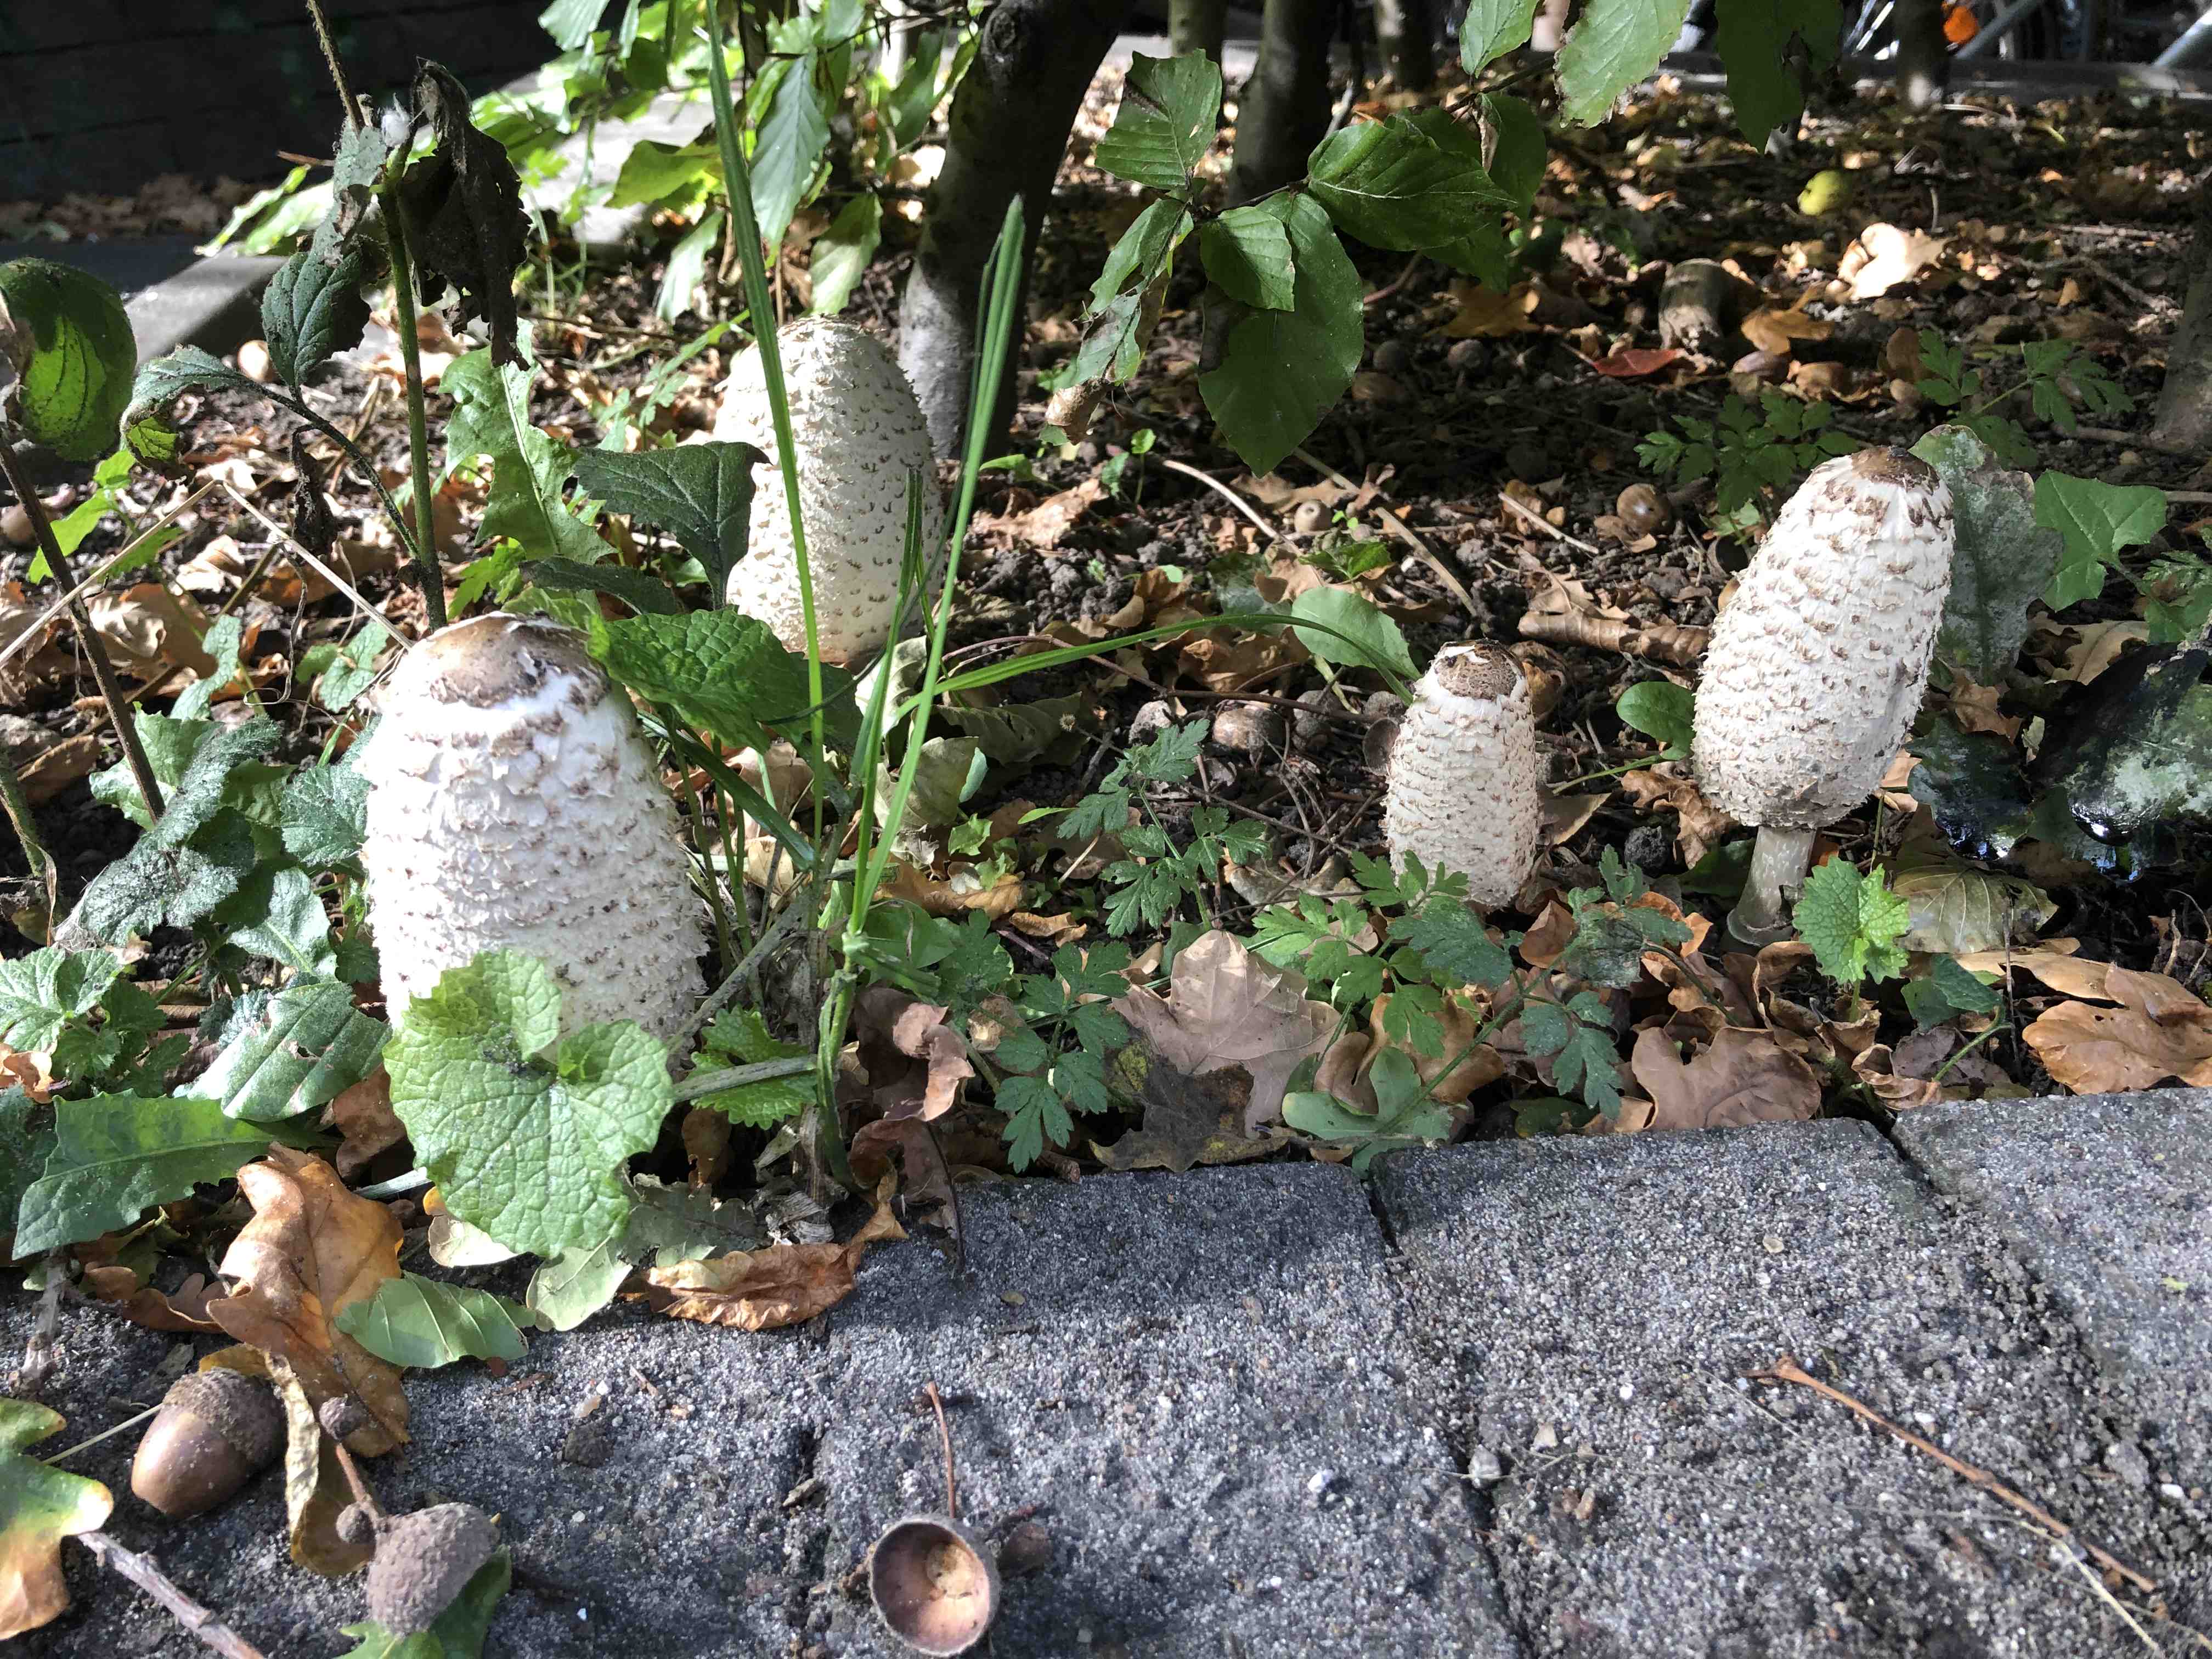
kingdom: Fungi
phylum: Basidiomycota
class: Agaricomycetes
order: Agaricales
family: Agaricaceae
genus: Coprinus
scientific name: Coprinus comatus
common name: stor parykhat
